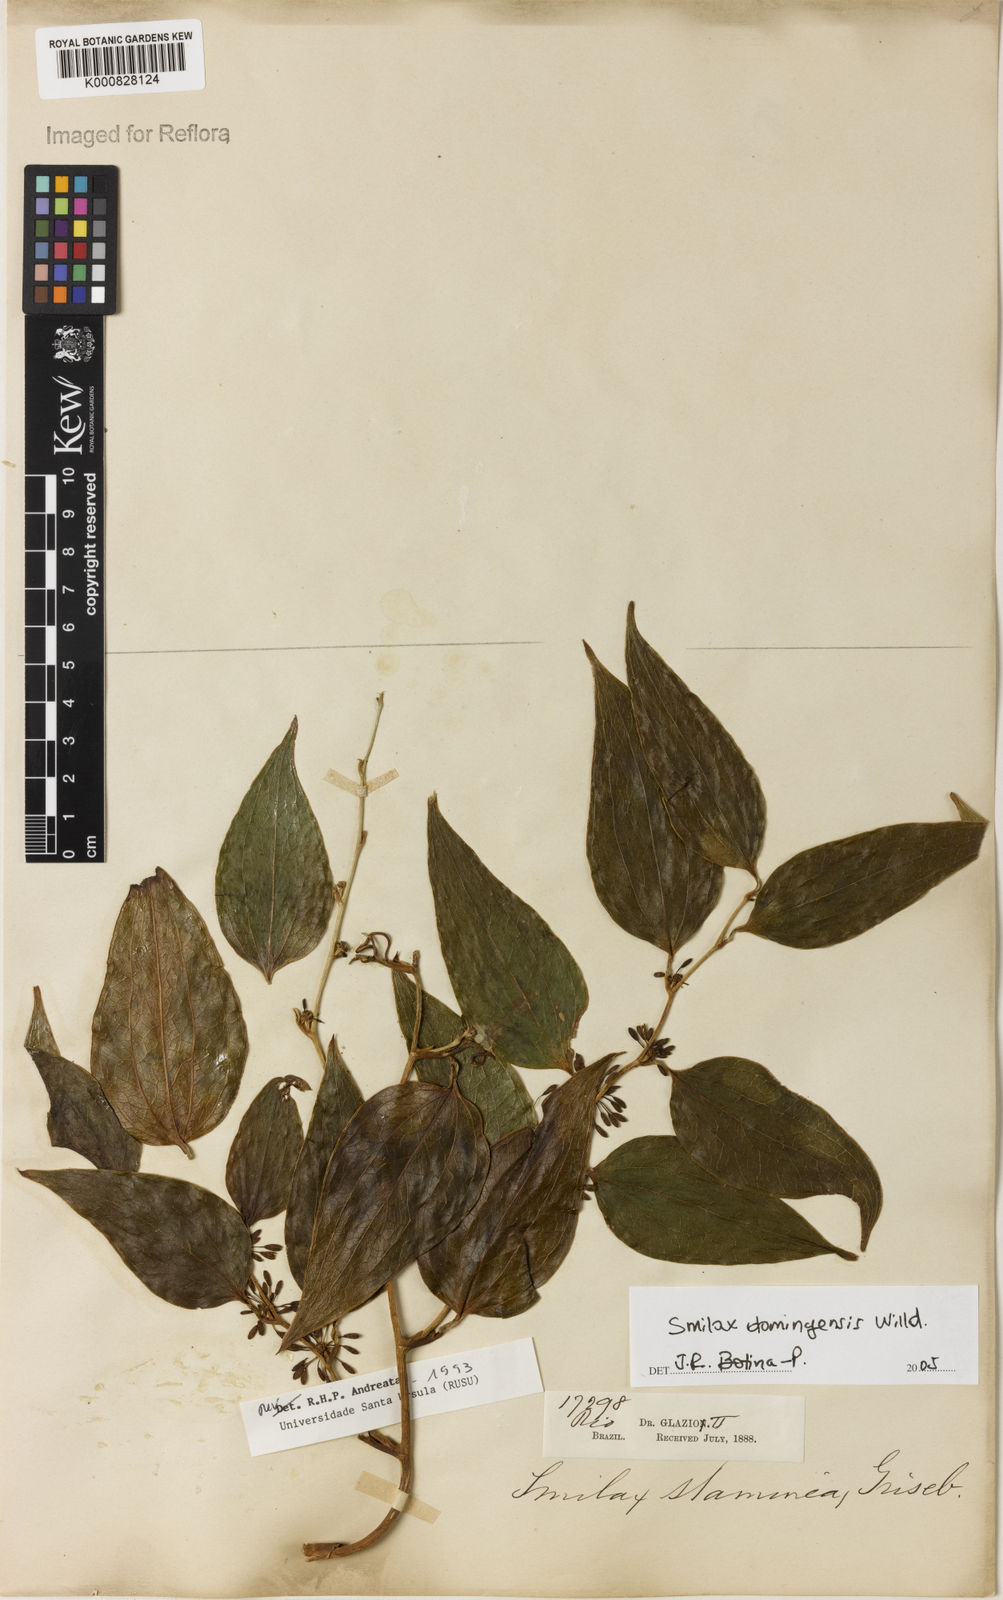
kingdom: Plantae
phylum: Tracheophyta
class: Liliopsida
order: Liliales
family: Smilacaceae
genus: Smilax
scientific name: Smilax domingensis
